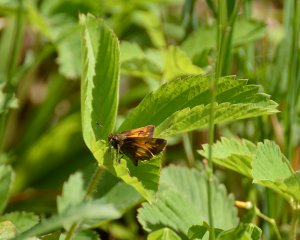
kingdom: Animalia
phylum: Arthropoda
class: Insecta
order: Lepidoptera
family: Hesperiidae
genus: Lon
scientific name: Lon hobomok
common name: Hobomok Skipper
